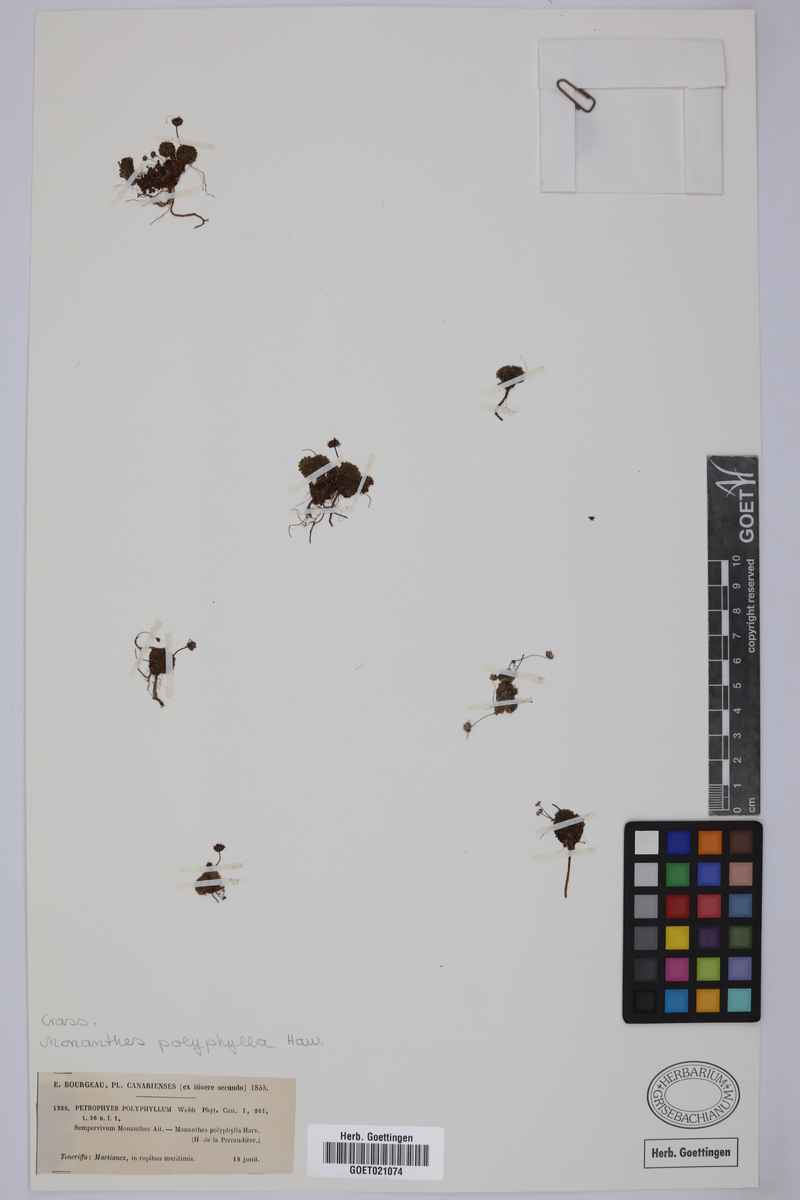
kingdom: Plantae
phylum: Tracheophyta
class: Magnoliopsida
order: Saxifragales
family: Crassulaceae
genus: Monanthes
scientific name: Monanthes polyphylla
